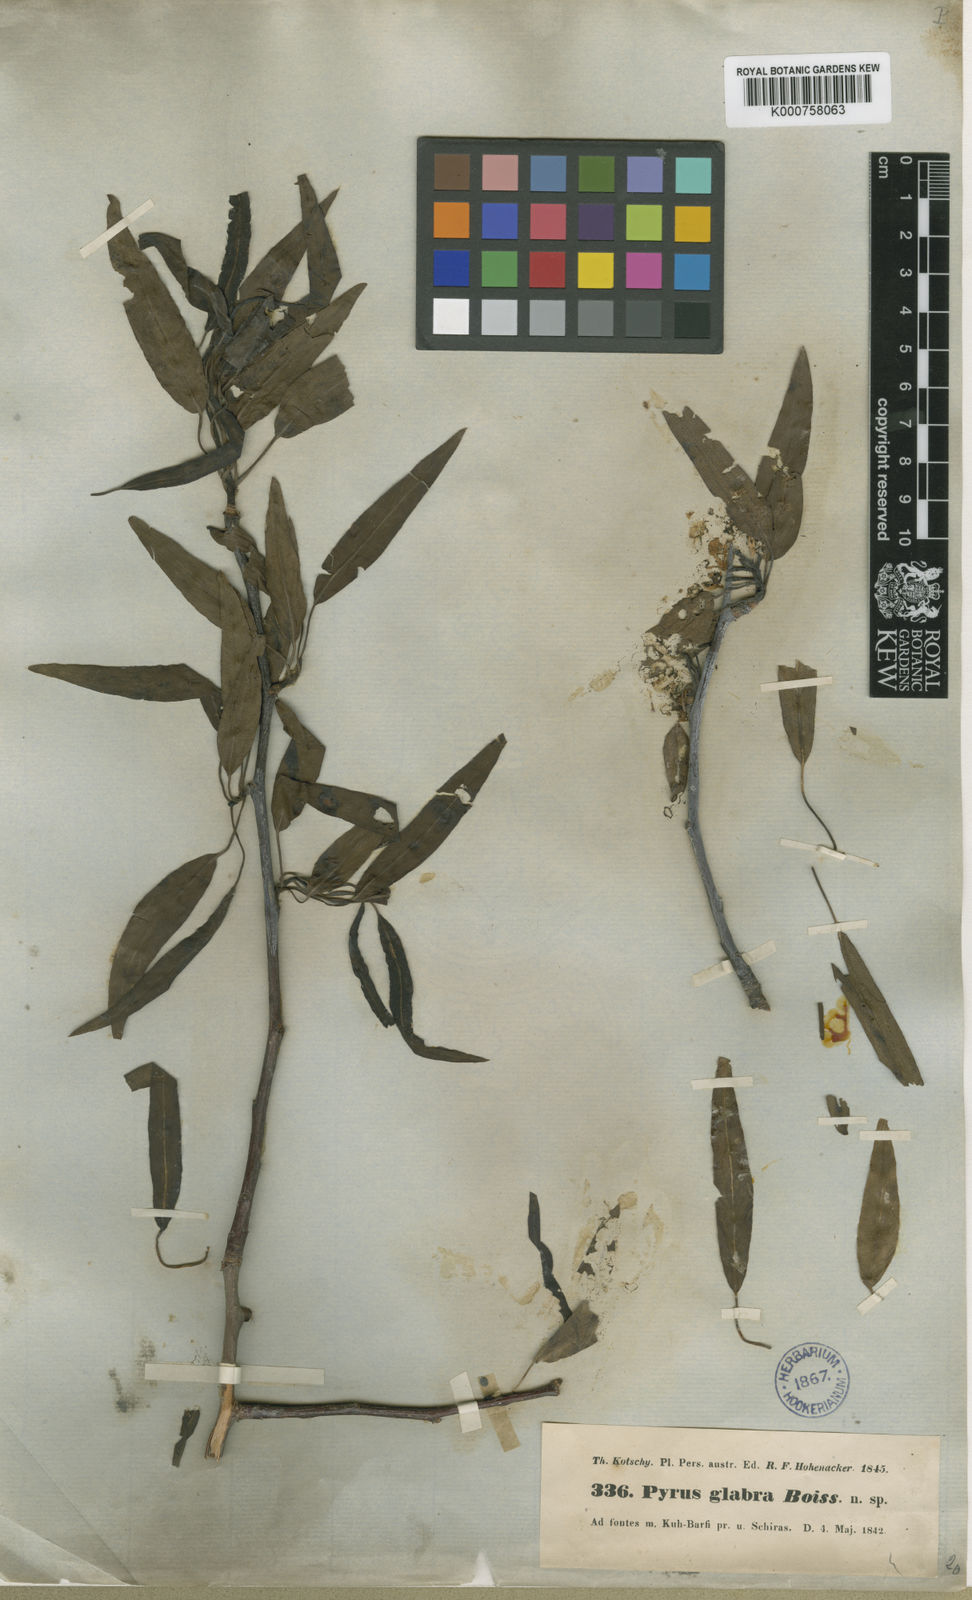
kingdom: Plantae
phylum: Tracheophyta
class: Magnoliopsida
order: Rosales
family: Rosaceae
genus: Pyrus
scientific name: Pyrus glabra
